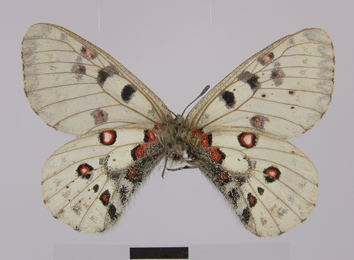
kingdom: Animalia
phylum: Arthropoda
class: Insecta
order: Lepidoptera
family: Papilionidae
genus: Parnassius
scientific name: Parnassius jacquemontii
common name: Keeled apollo
